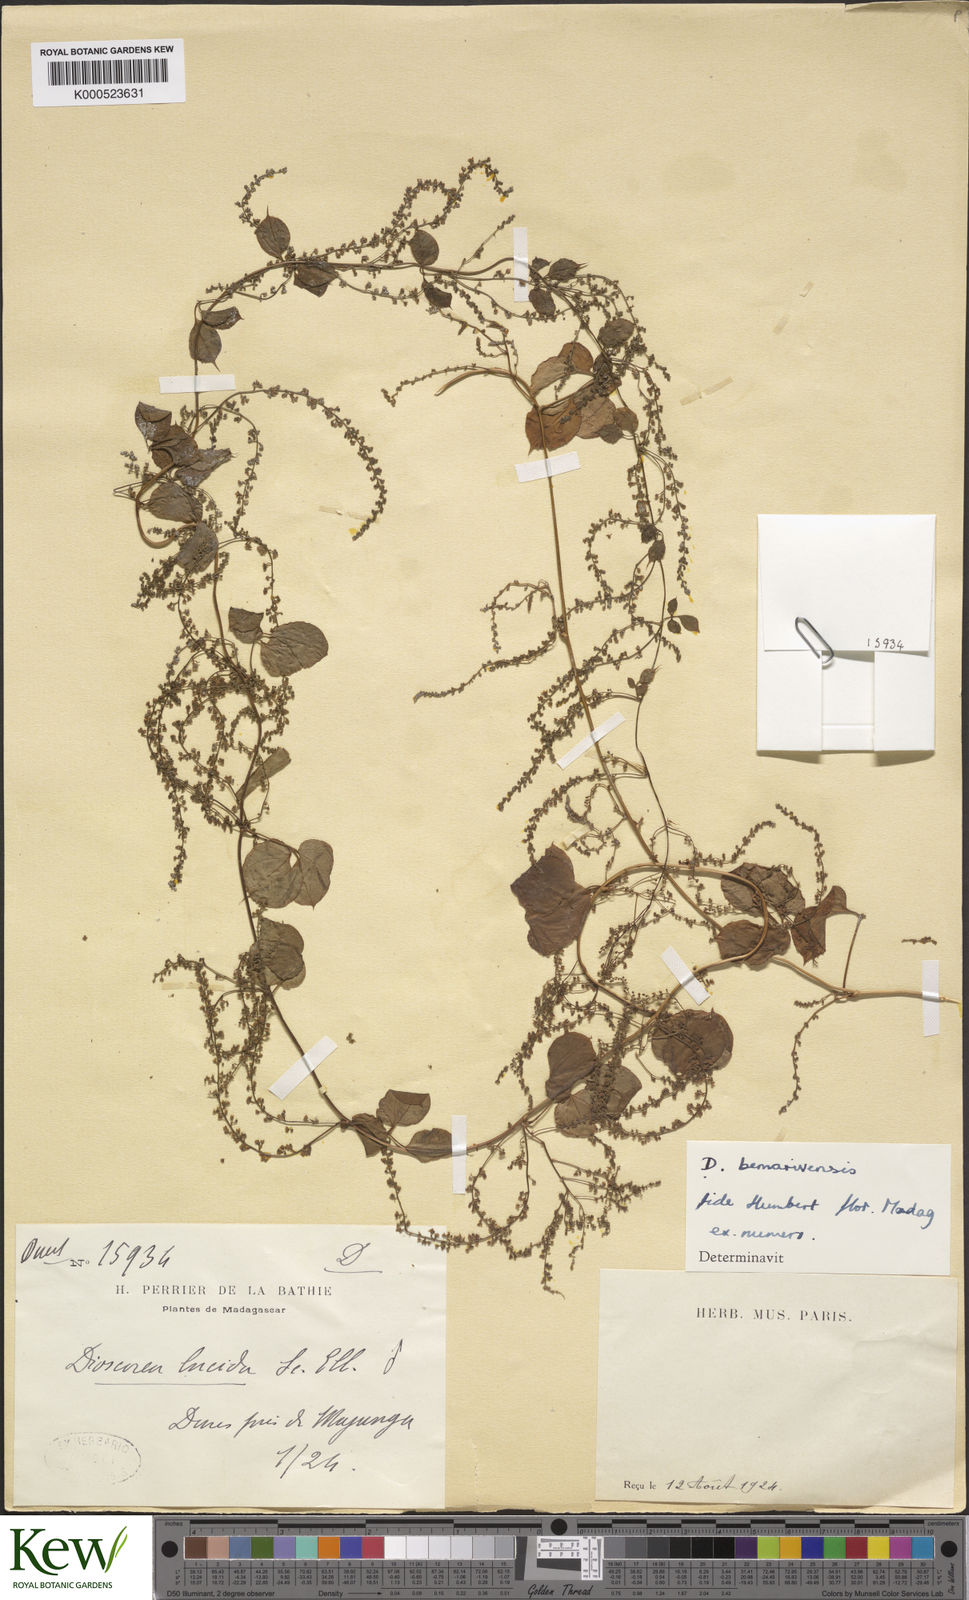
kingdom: Plantae
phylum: Tracheophyta
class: Liliopsida
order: Dioscoreales
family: Dioscoreaceae
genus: Dioscorea
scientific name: Dioscorea bemarivensis
